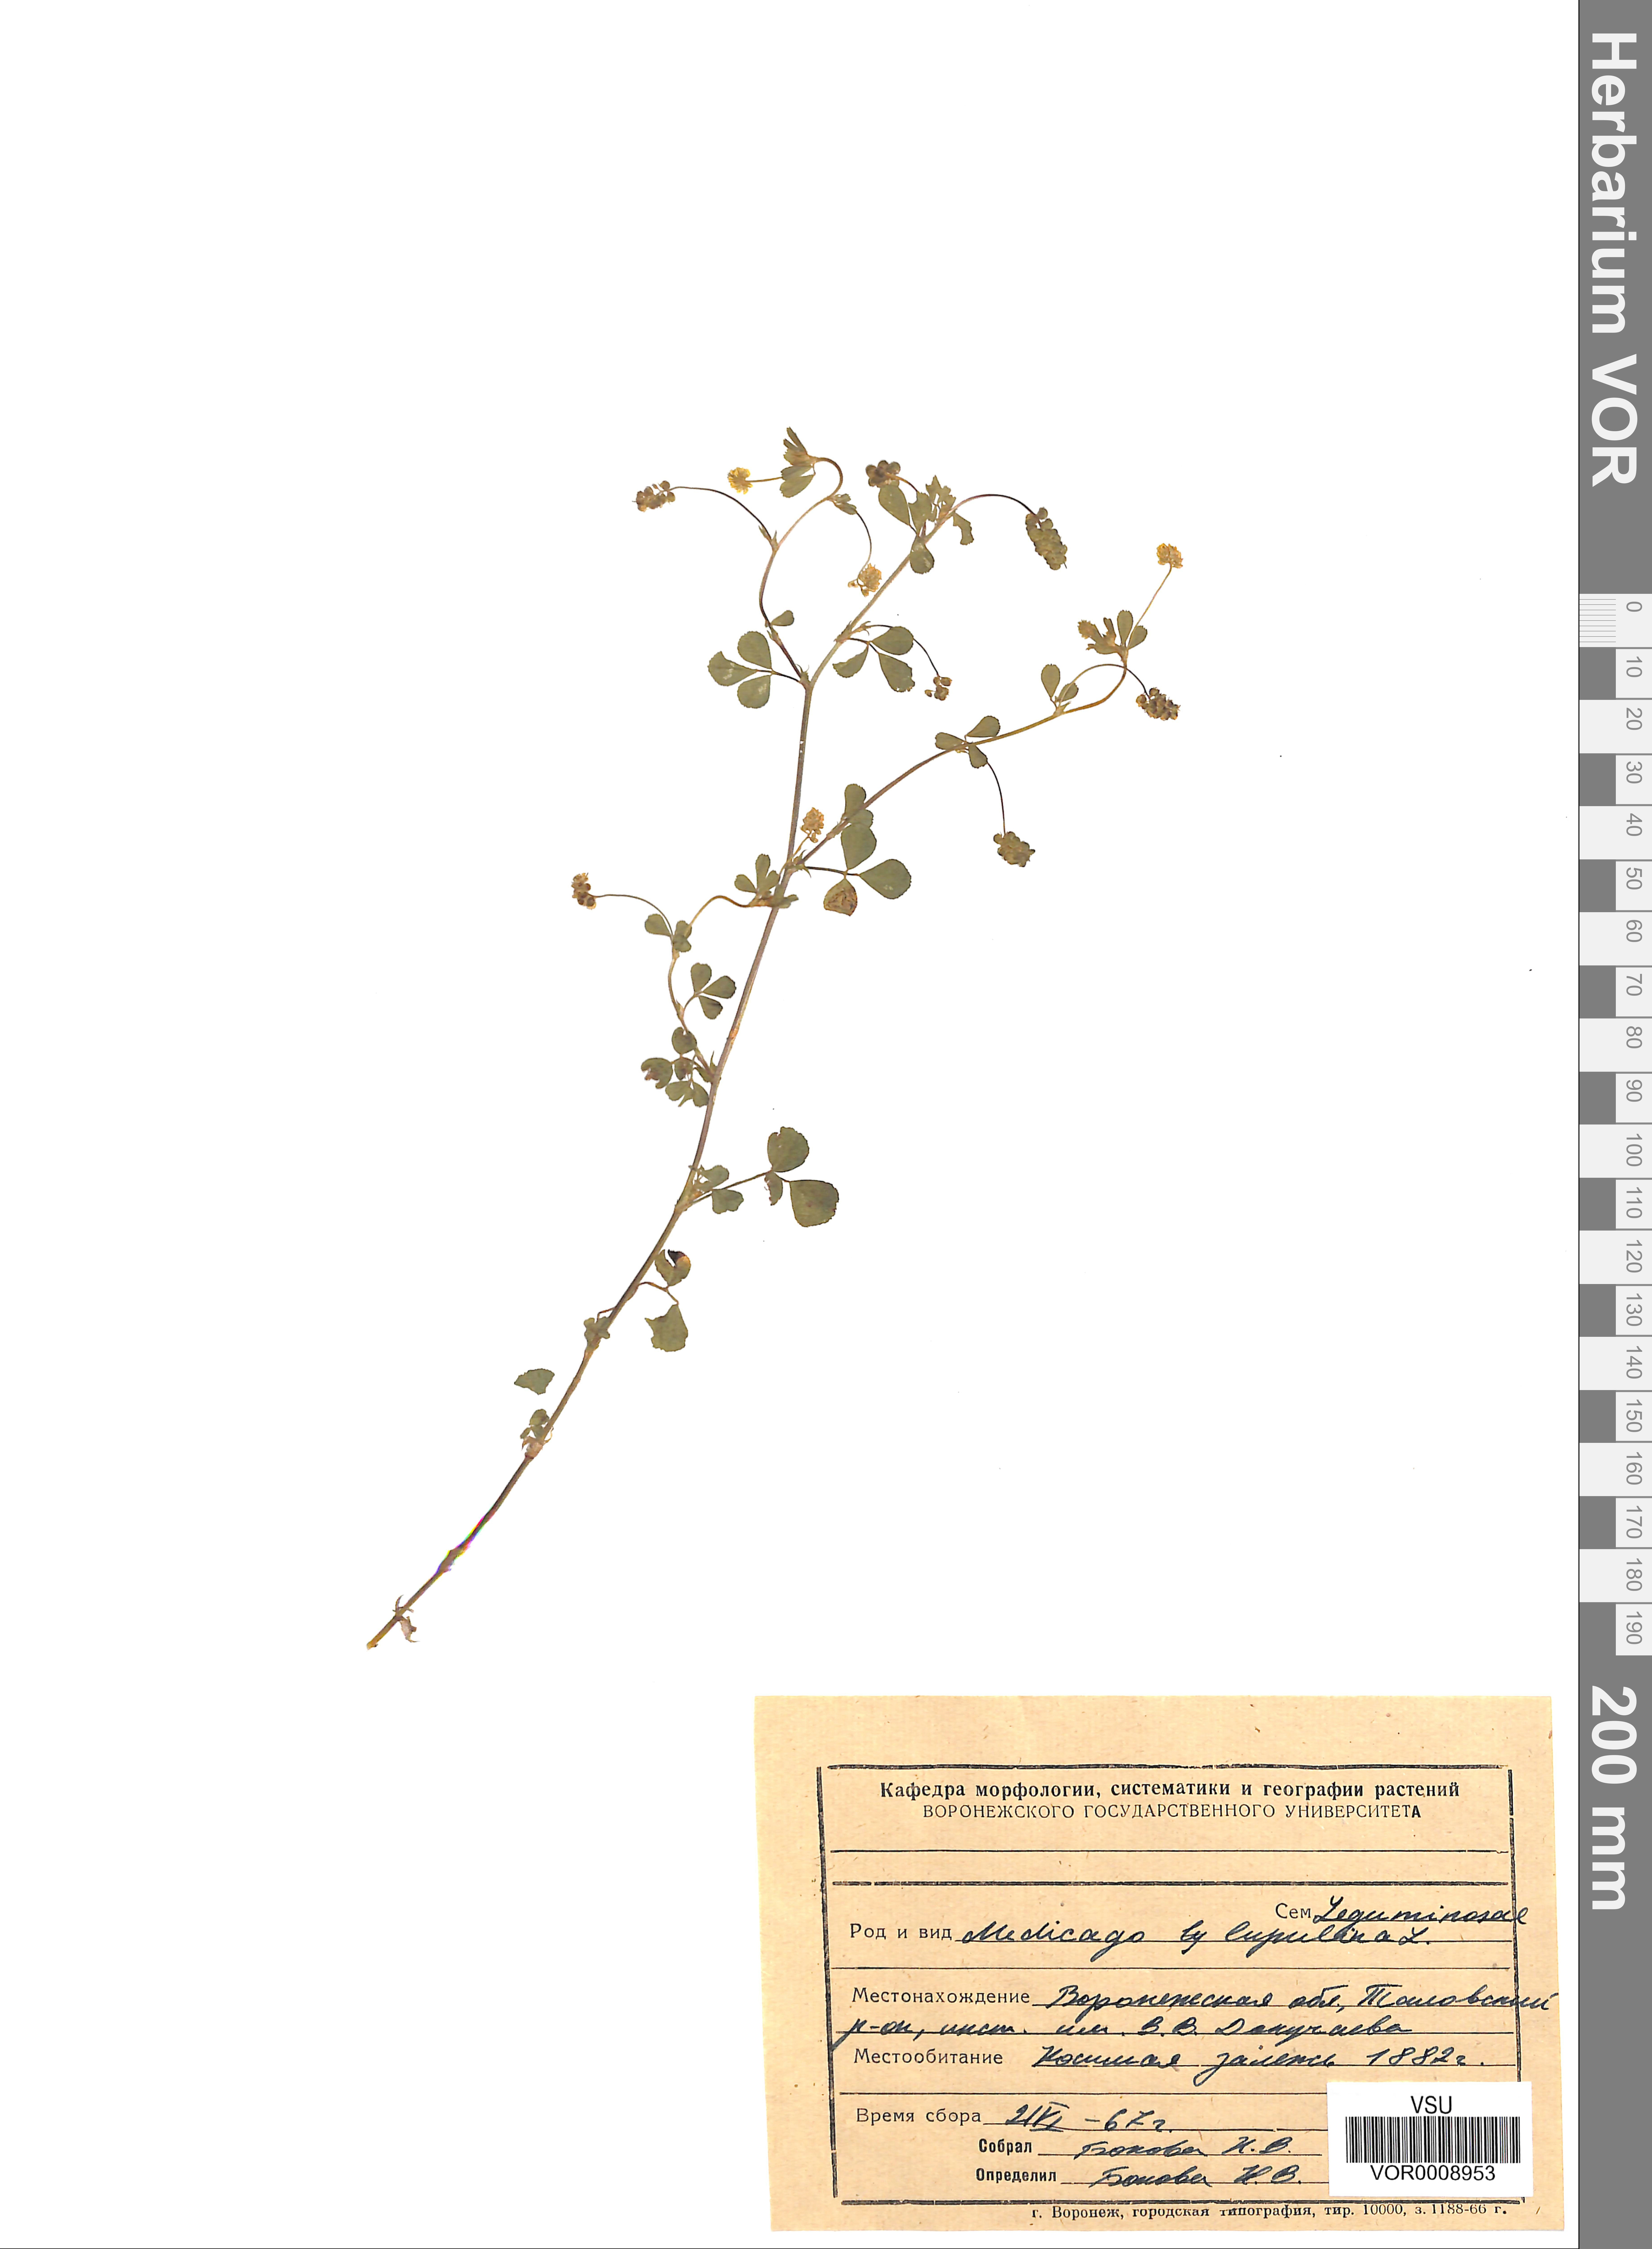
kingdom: Plantae
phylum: Tracheophyta
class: Magnoliopsida
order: Fabales
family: Fabaceae
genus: Medicago
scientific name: Medicago lupulina
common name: Black medick
